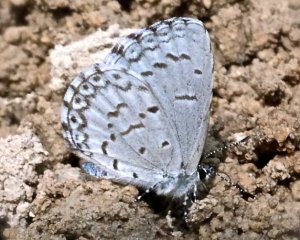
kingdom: Animalia
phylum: Arthropoda
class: Insecta
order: Lepidoptera
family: Lycaenidae
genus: Cyaniris
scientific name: Cyaniris neglecta
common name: Summer Azure
